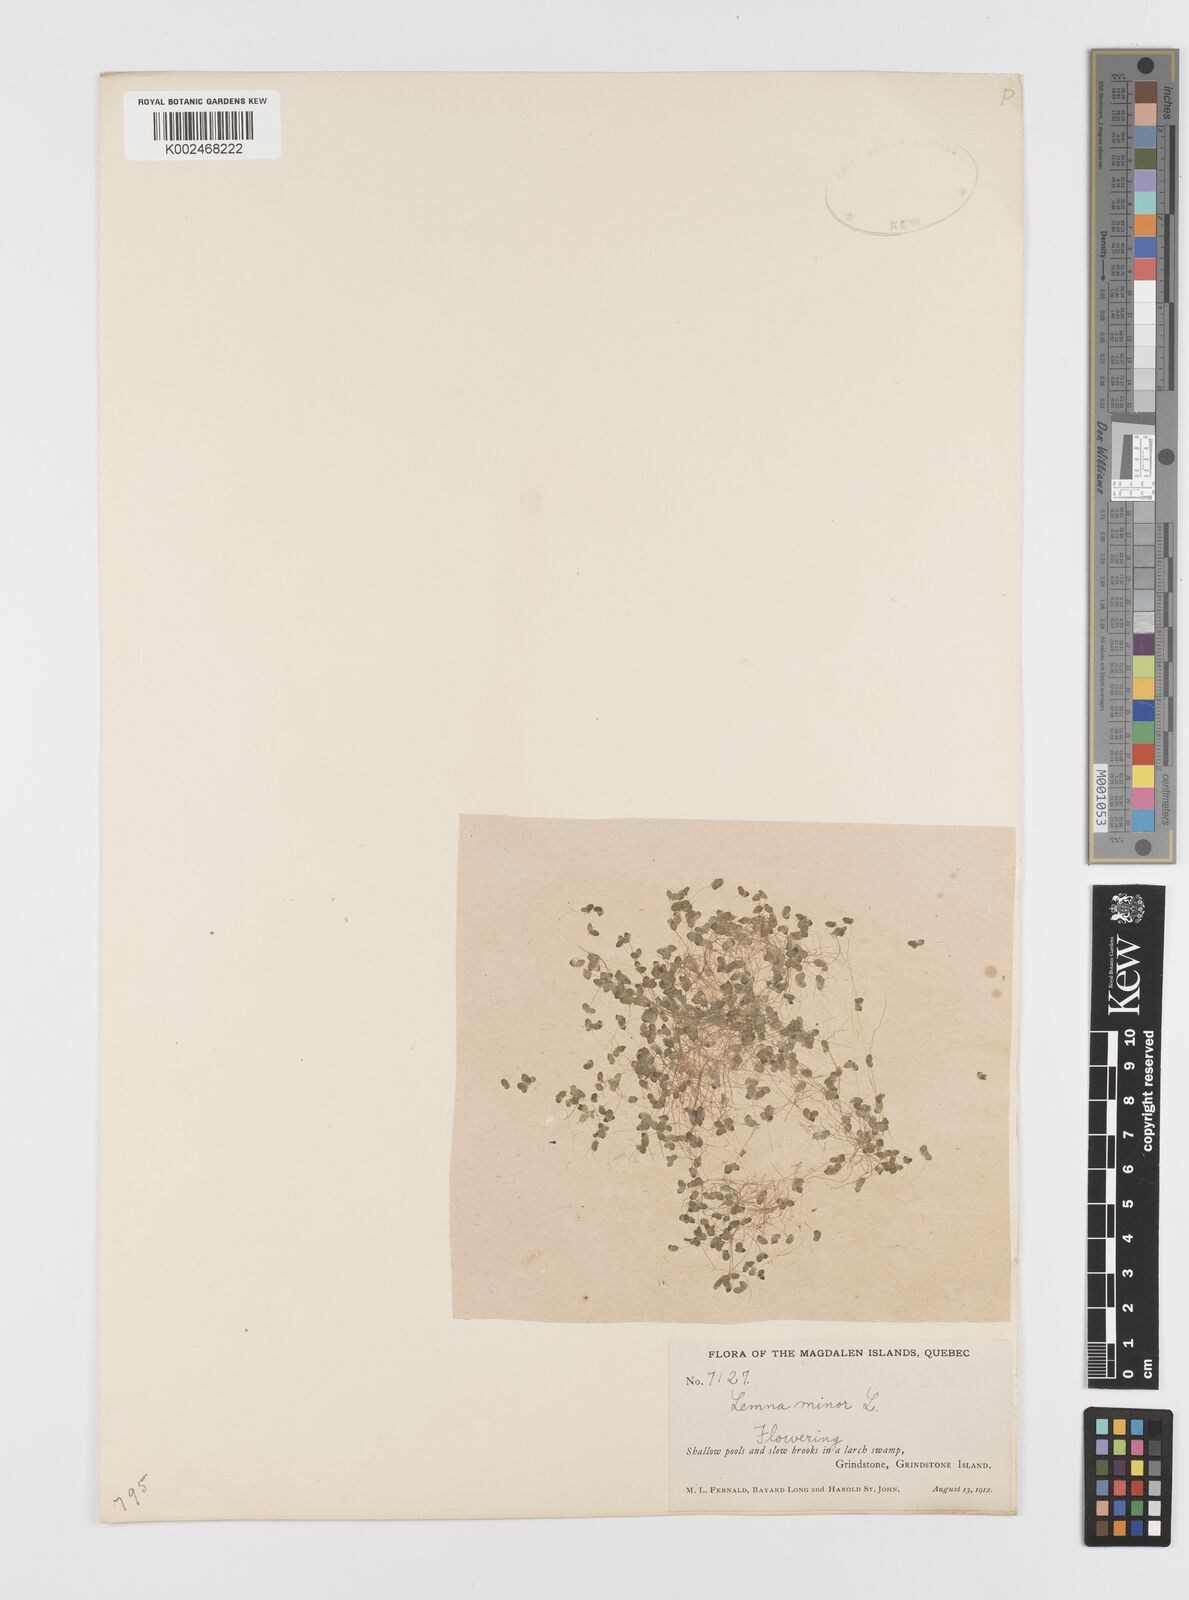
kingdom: Plantae
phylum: Tracheophyta
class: Liliopsida
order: Alismatales
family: Araceae
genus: Lemna
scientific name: Lemna minor
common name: Common duckweed
